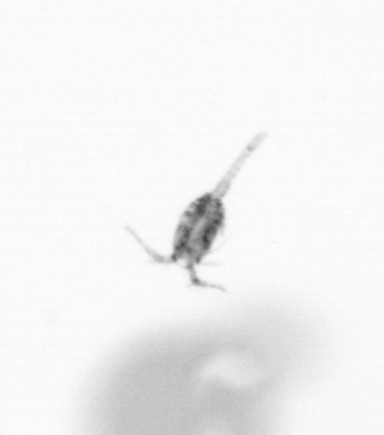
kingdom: Animalia
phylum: Arthropoda
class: Copepoda
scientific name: Copepoda
